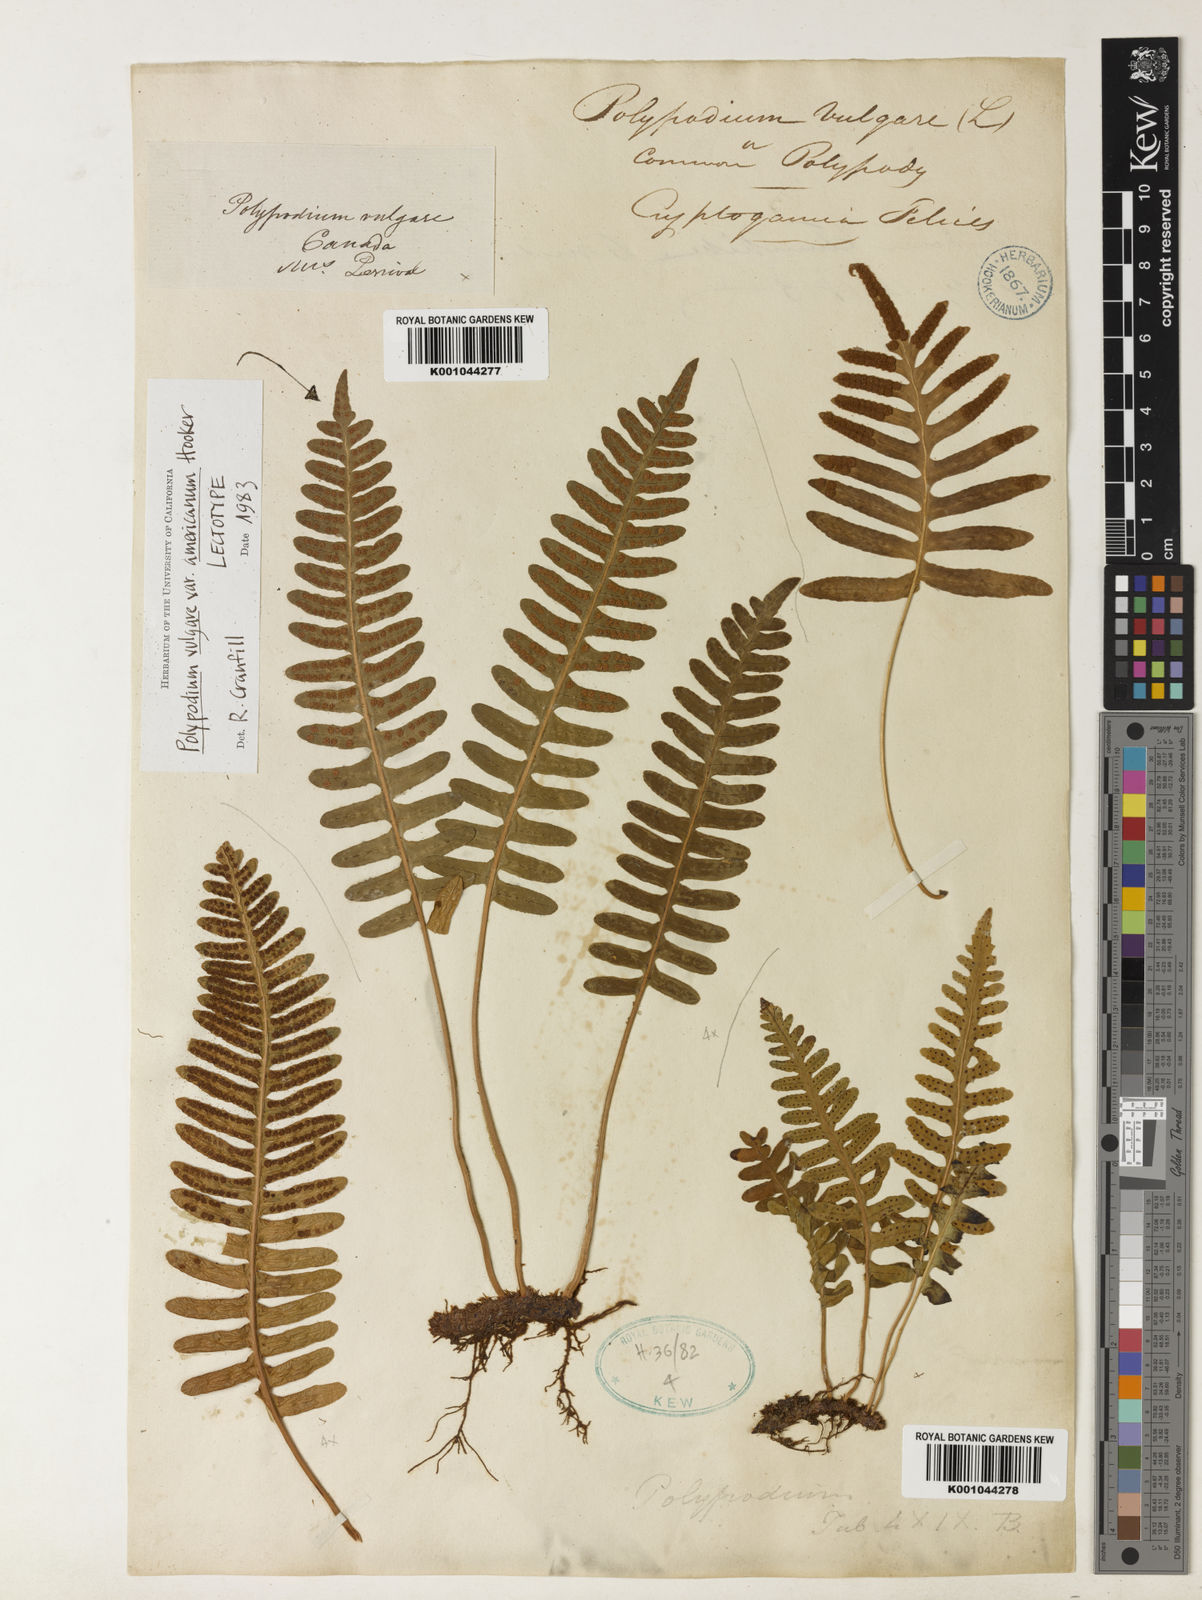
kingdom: Plantae
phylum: Tracheophyta
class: Polypodiopsida
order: Polypodiales
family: Polypodiaceae
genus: Polypodium
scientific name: Polypodium virginianum
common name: American wall fern
